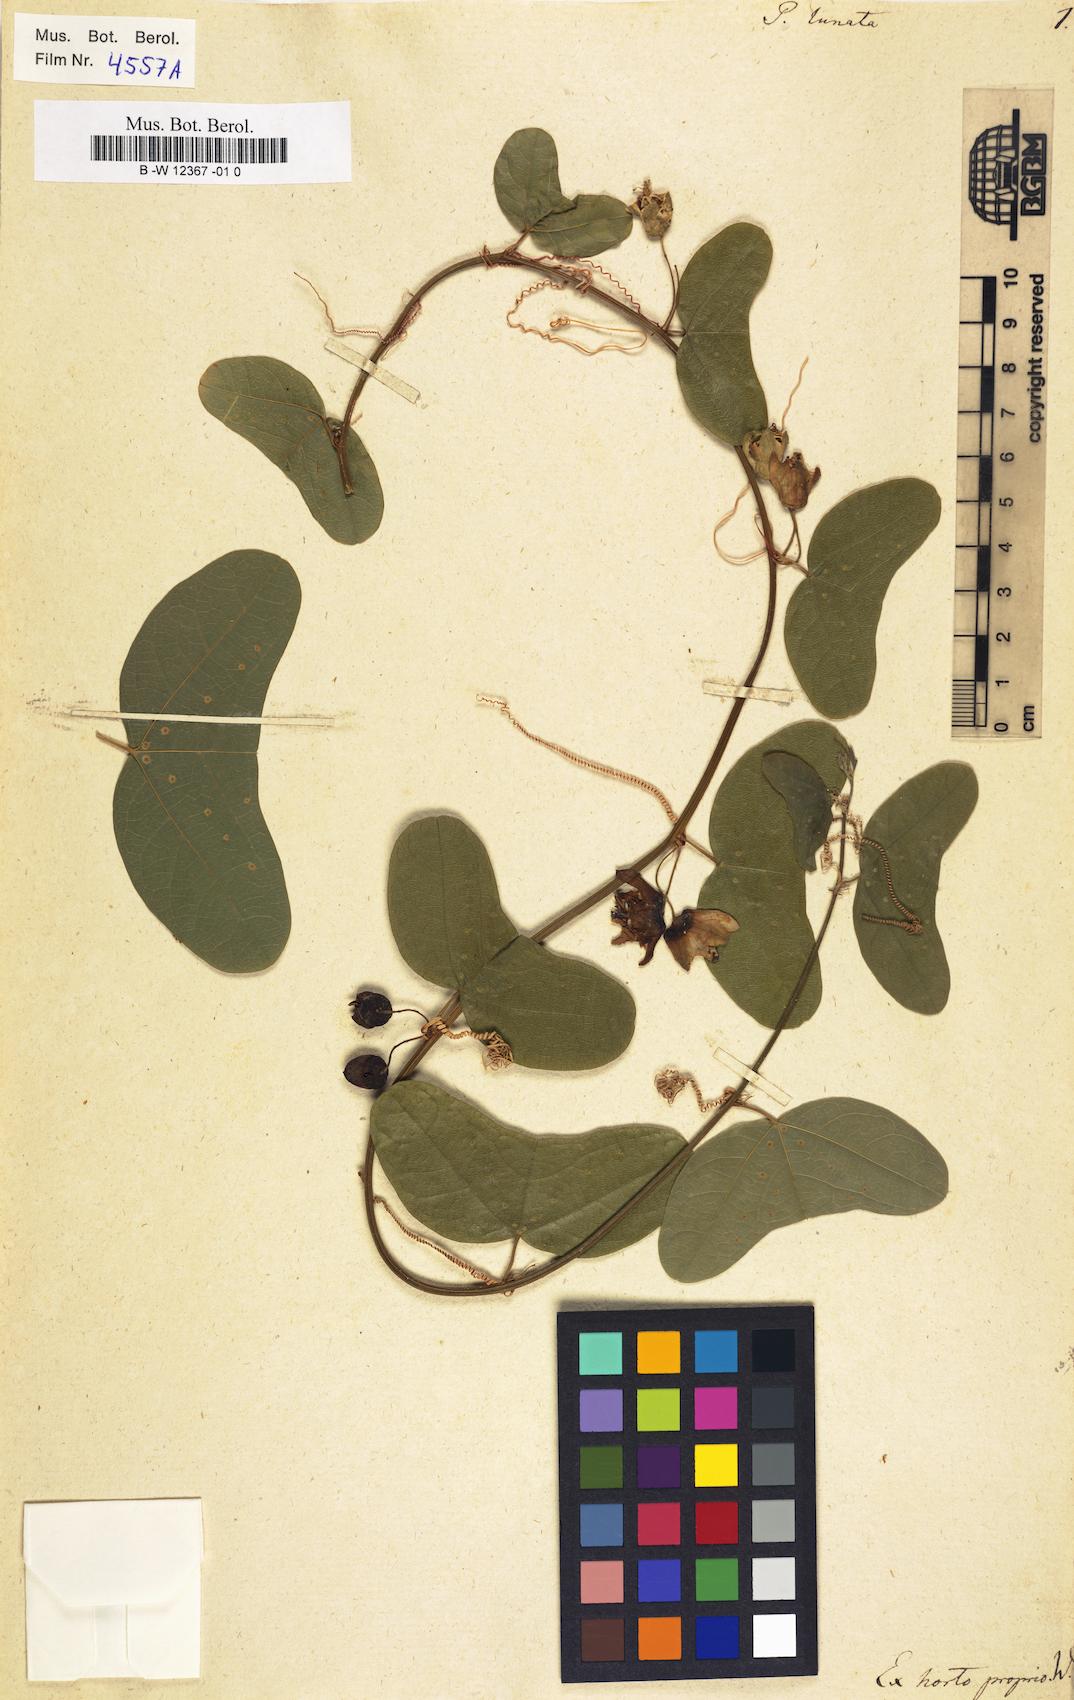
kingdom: Plantae
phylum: Tracheophyta
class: Magnoliopsida
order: Malpighiales
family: Passifloraceae
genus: Passiflora
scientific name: Passiflora biflora
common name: Twoflower passionflower
